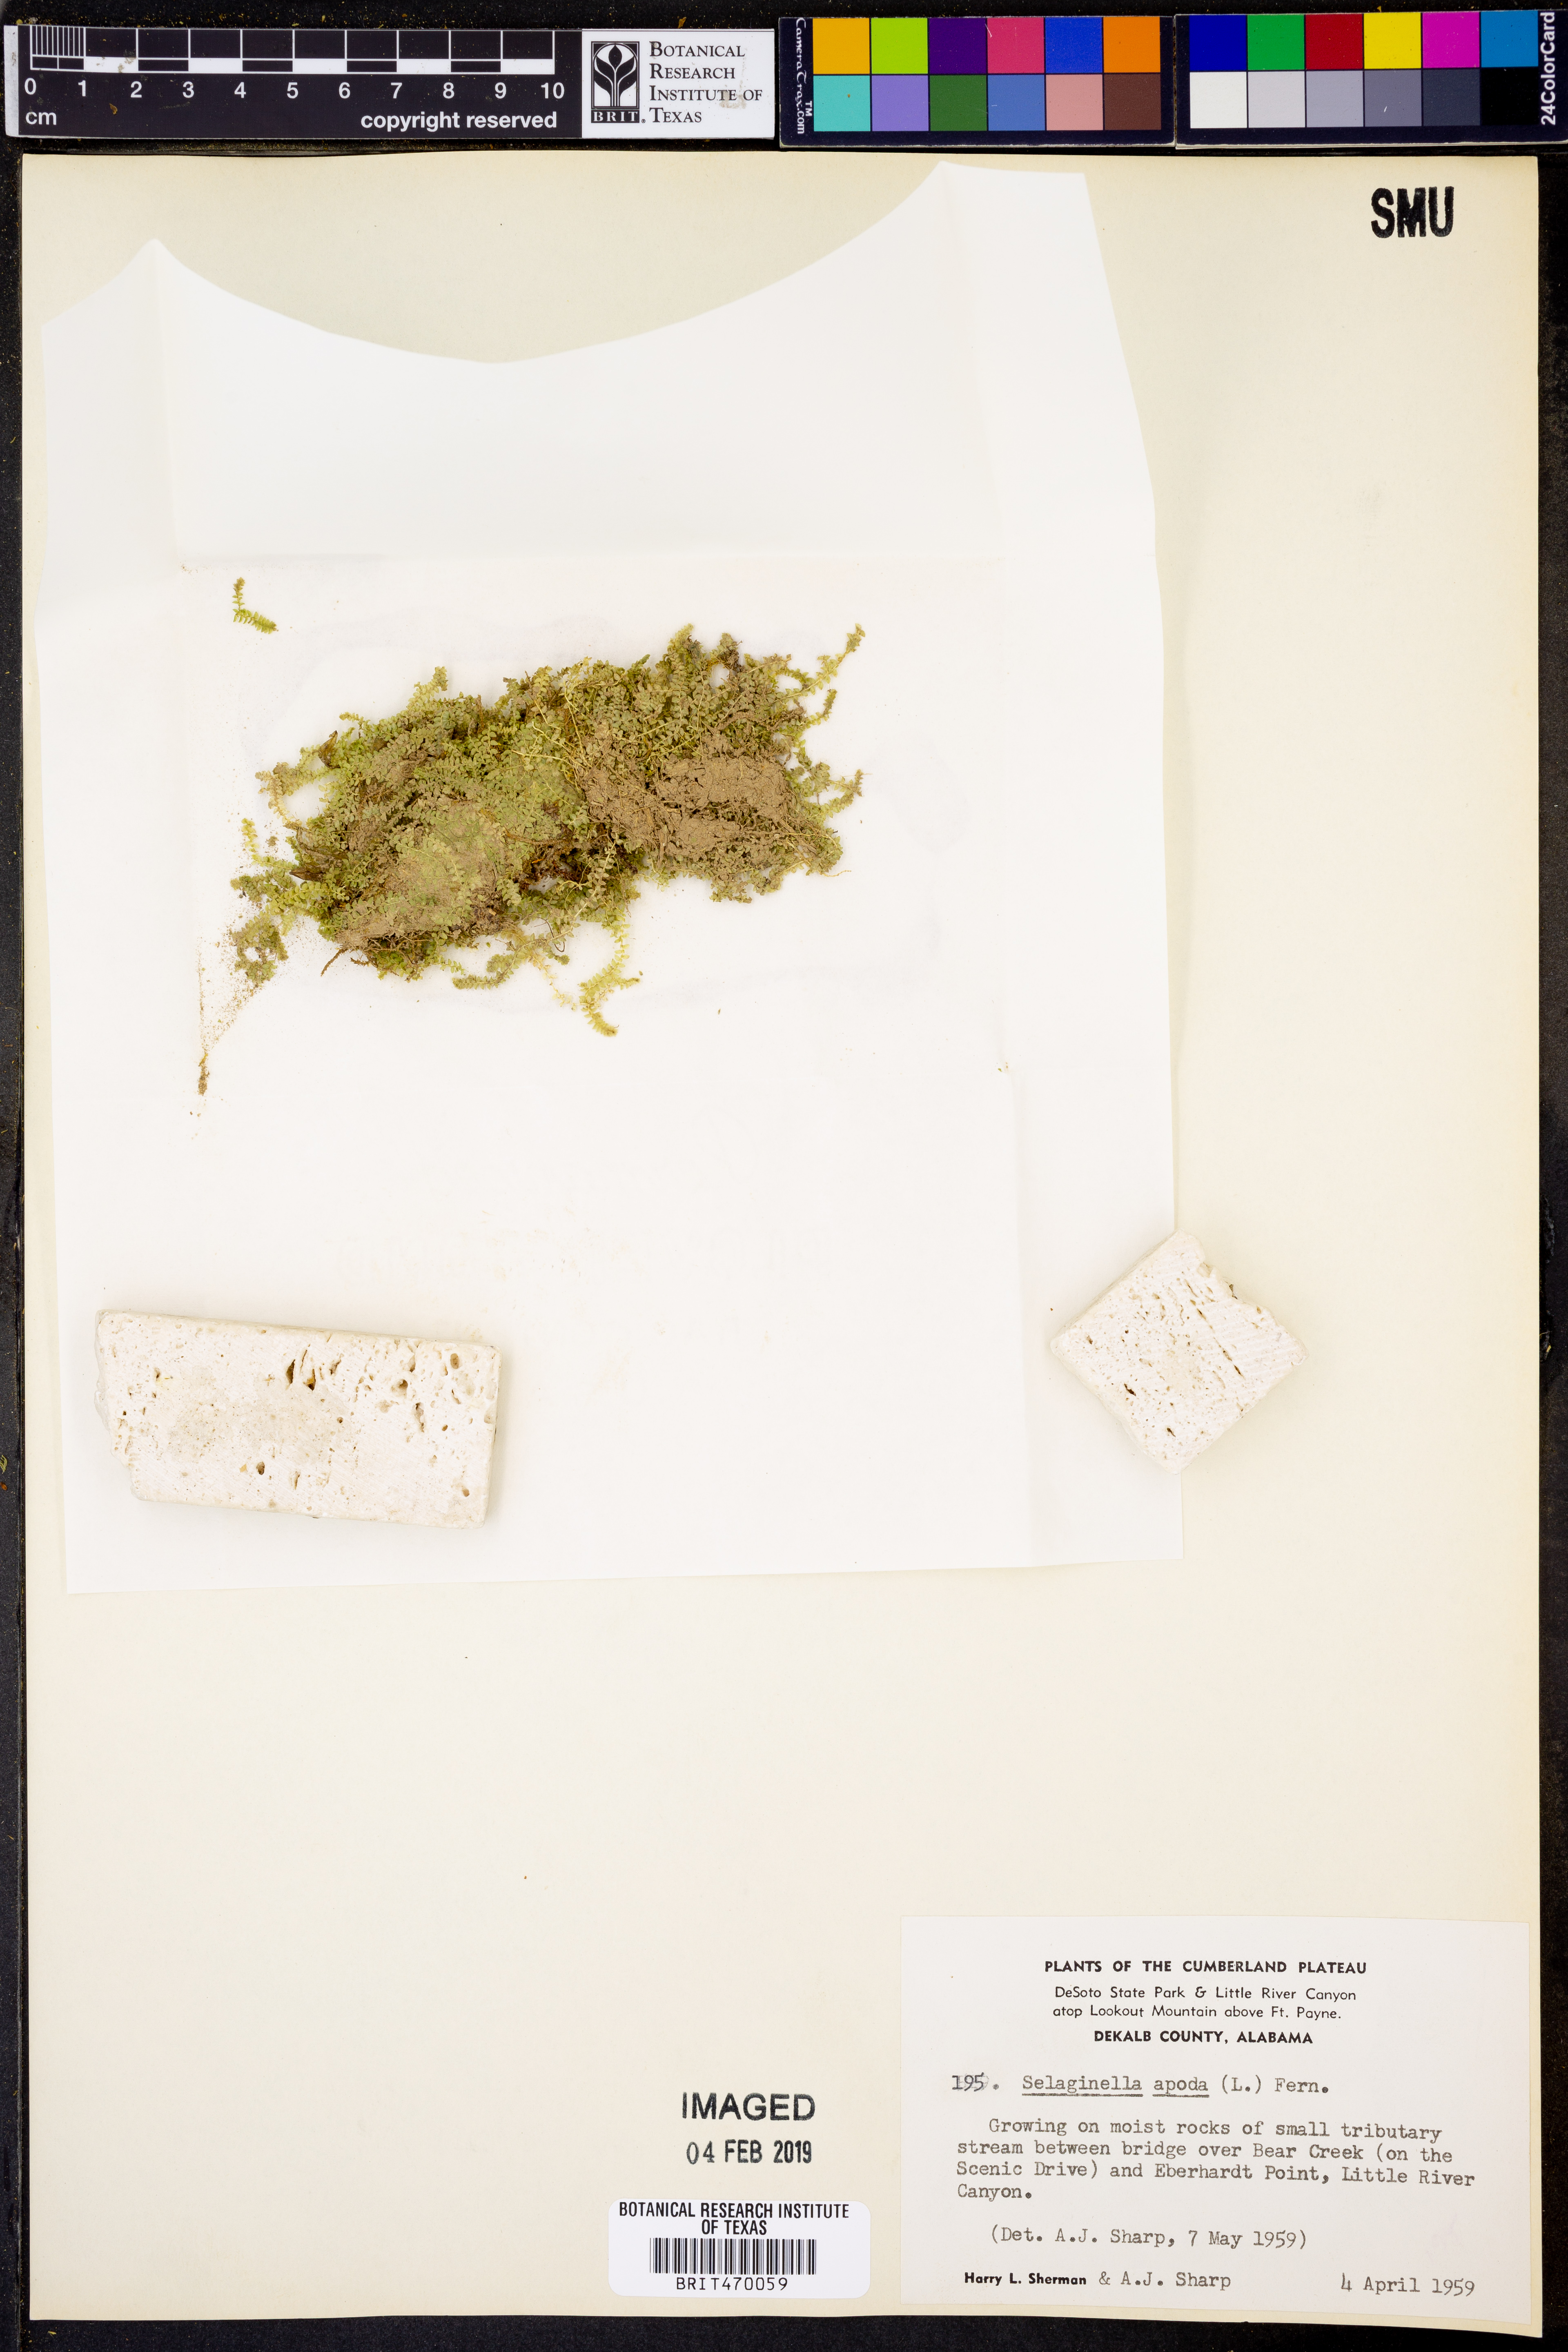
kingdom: Plantae
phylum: Tracheophyta
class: Lycopodiopsida
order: Selaginellales
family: Selaginellaceae
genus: Selaginella
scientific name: Selaginella apoda
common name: Creeping spikemoss
